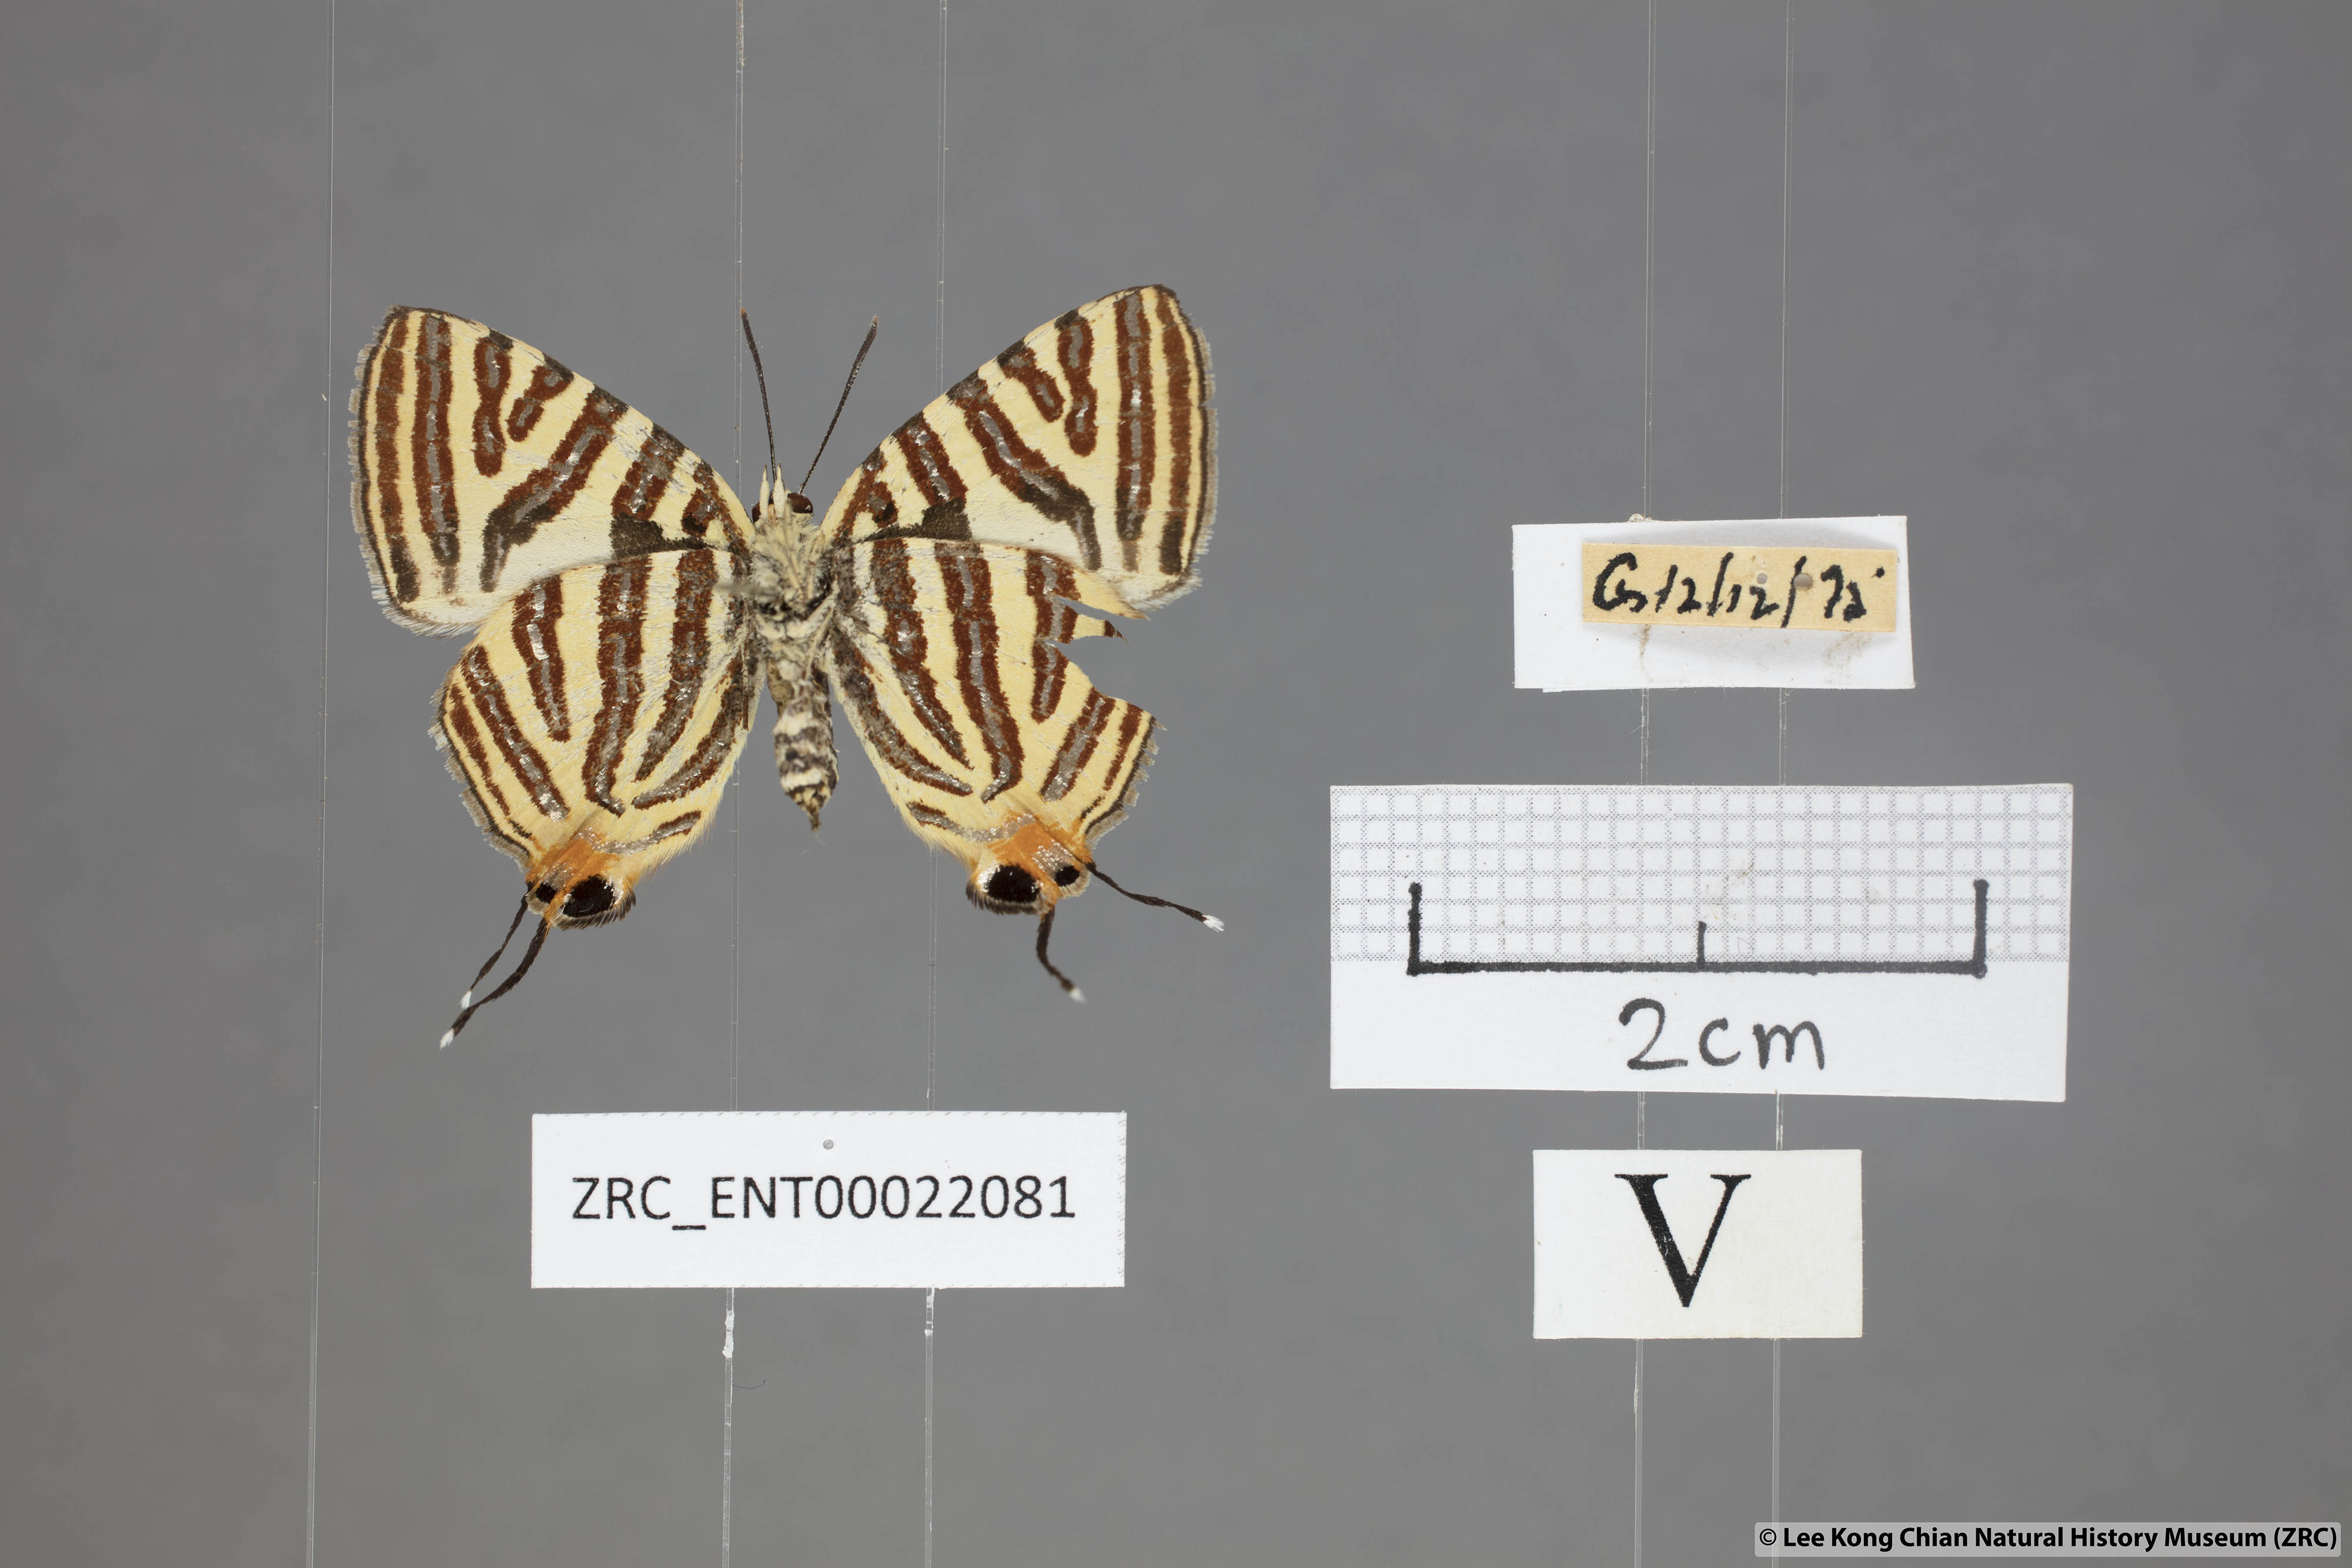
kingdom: Animalia
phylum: Arthropoda
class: Insecta
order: Lepidoptera
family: Lycaenidae
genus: Spindasis
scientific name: Spindasis lohita
